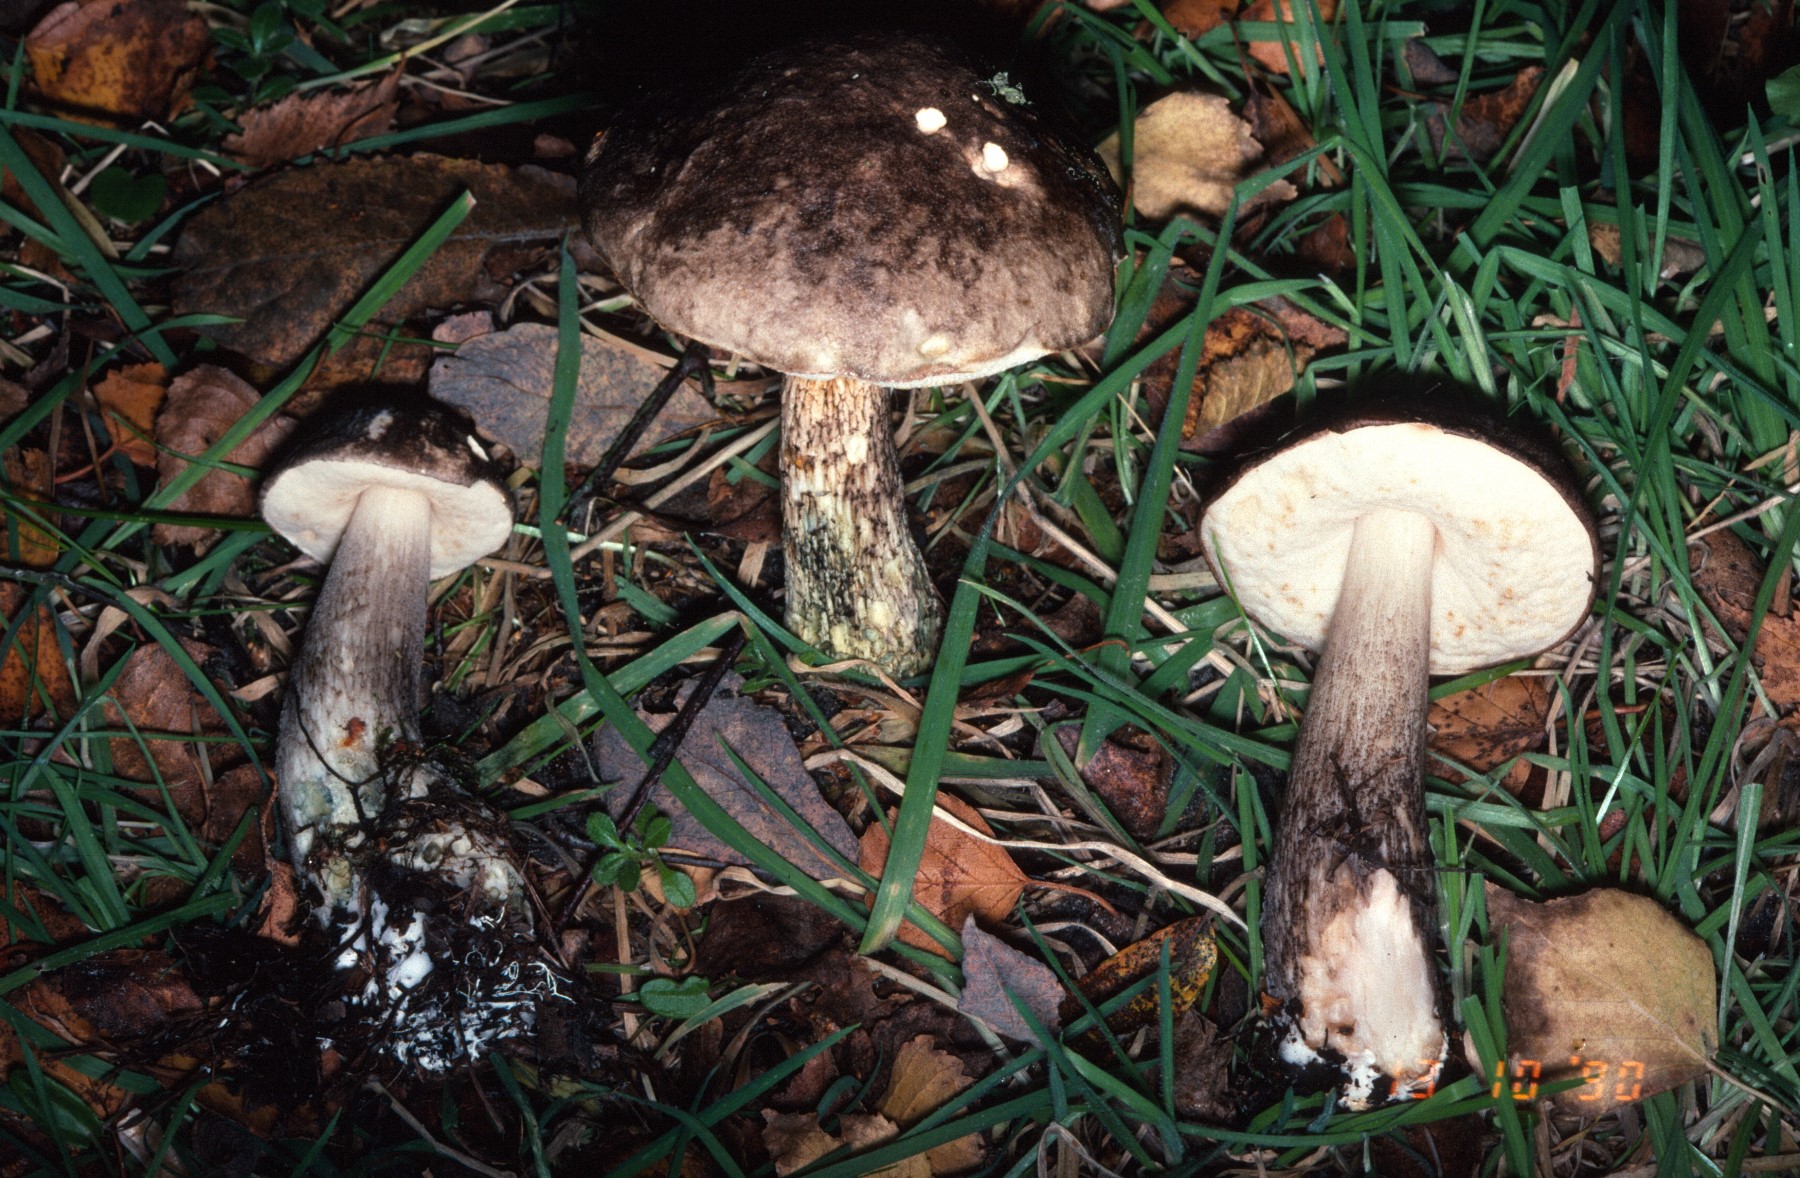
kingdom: Fungi
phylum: Basidiomycota
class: Agaricomycetes
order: Boletales
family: Boletaceae
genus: Leccinum
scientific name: Leccinum variicolor
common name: flammet skælrørhat
